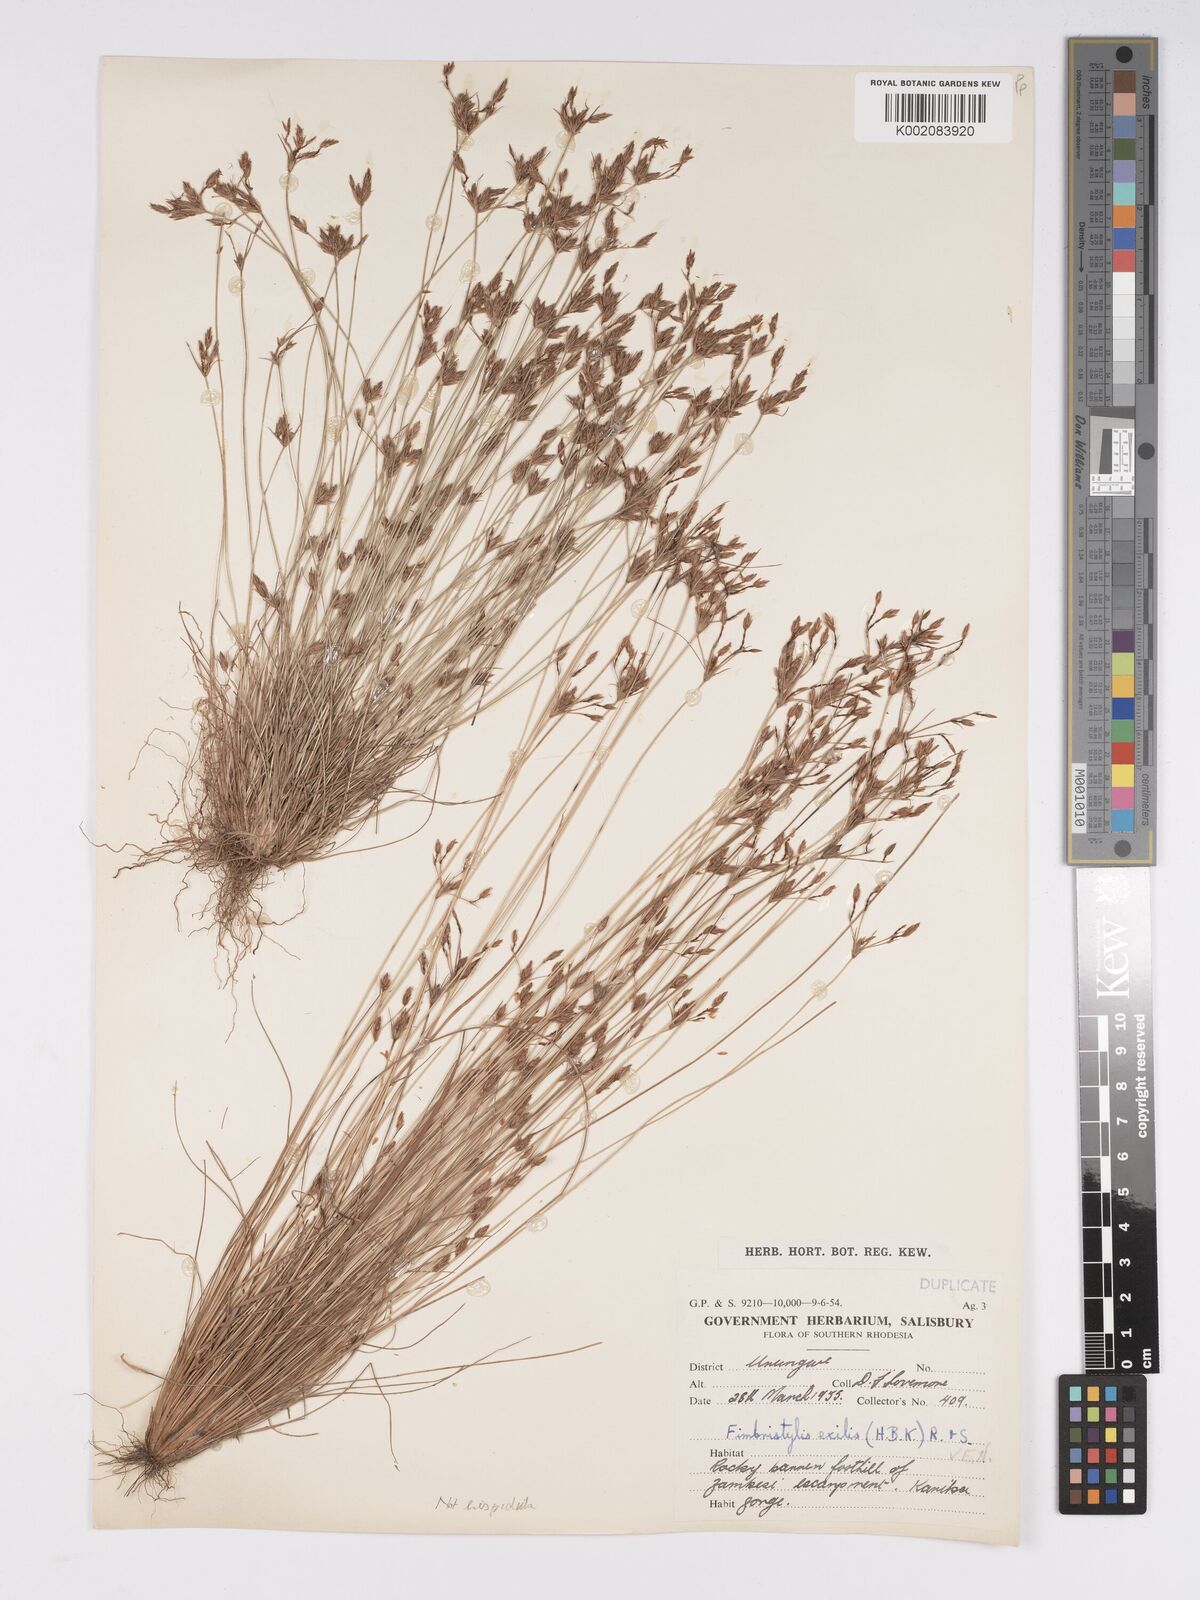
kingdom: Plantae
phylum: Tracheophyta
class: Liliopsida
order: Poales
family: Cyperaceae
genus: Bulbostylis
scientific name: Bulbostylis hispidula
